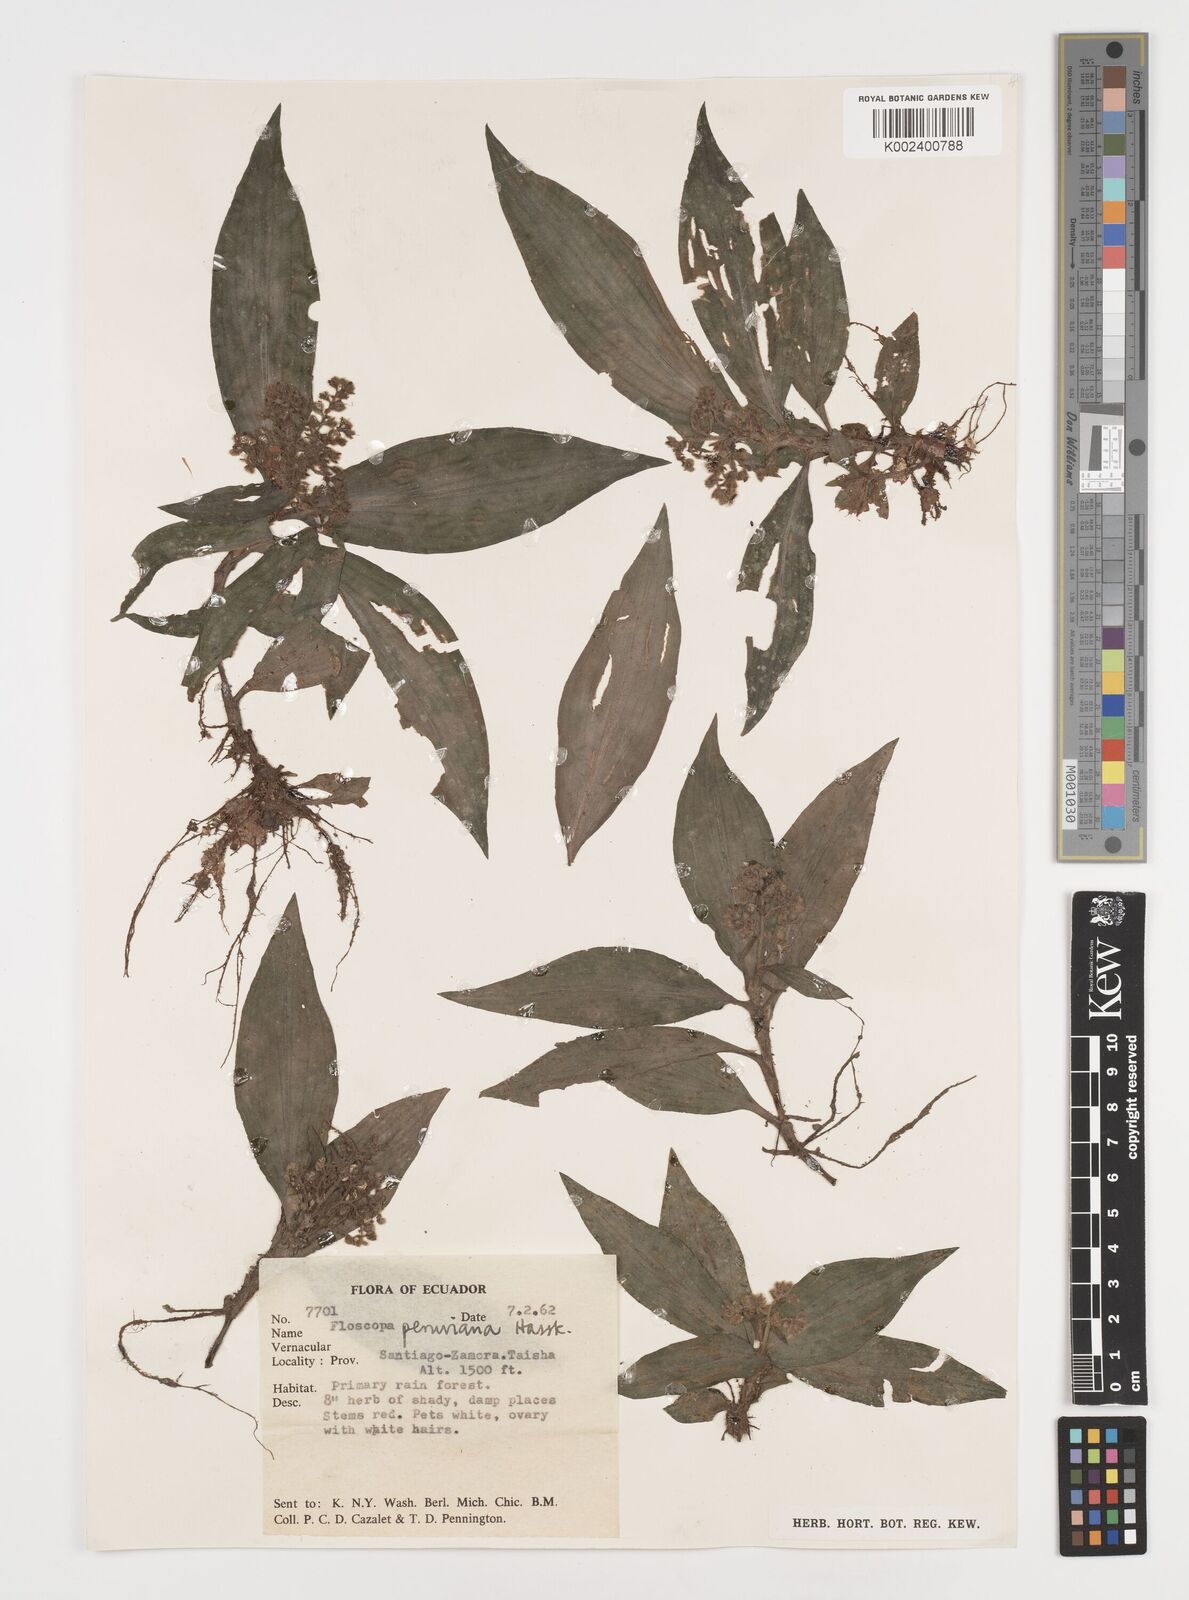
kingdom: Plantae
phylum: Tracheophyta
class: Liliopsida
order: Commelinales
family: Commelinaceae
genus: Floscopa
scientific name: Floscopa perforans
